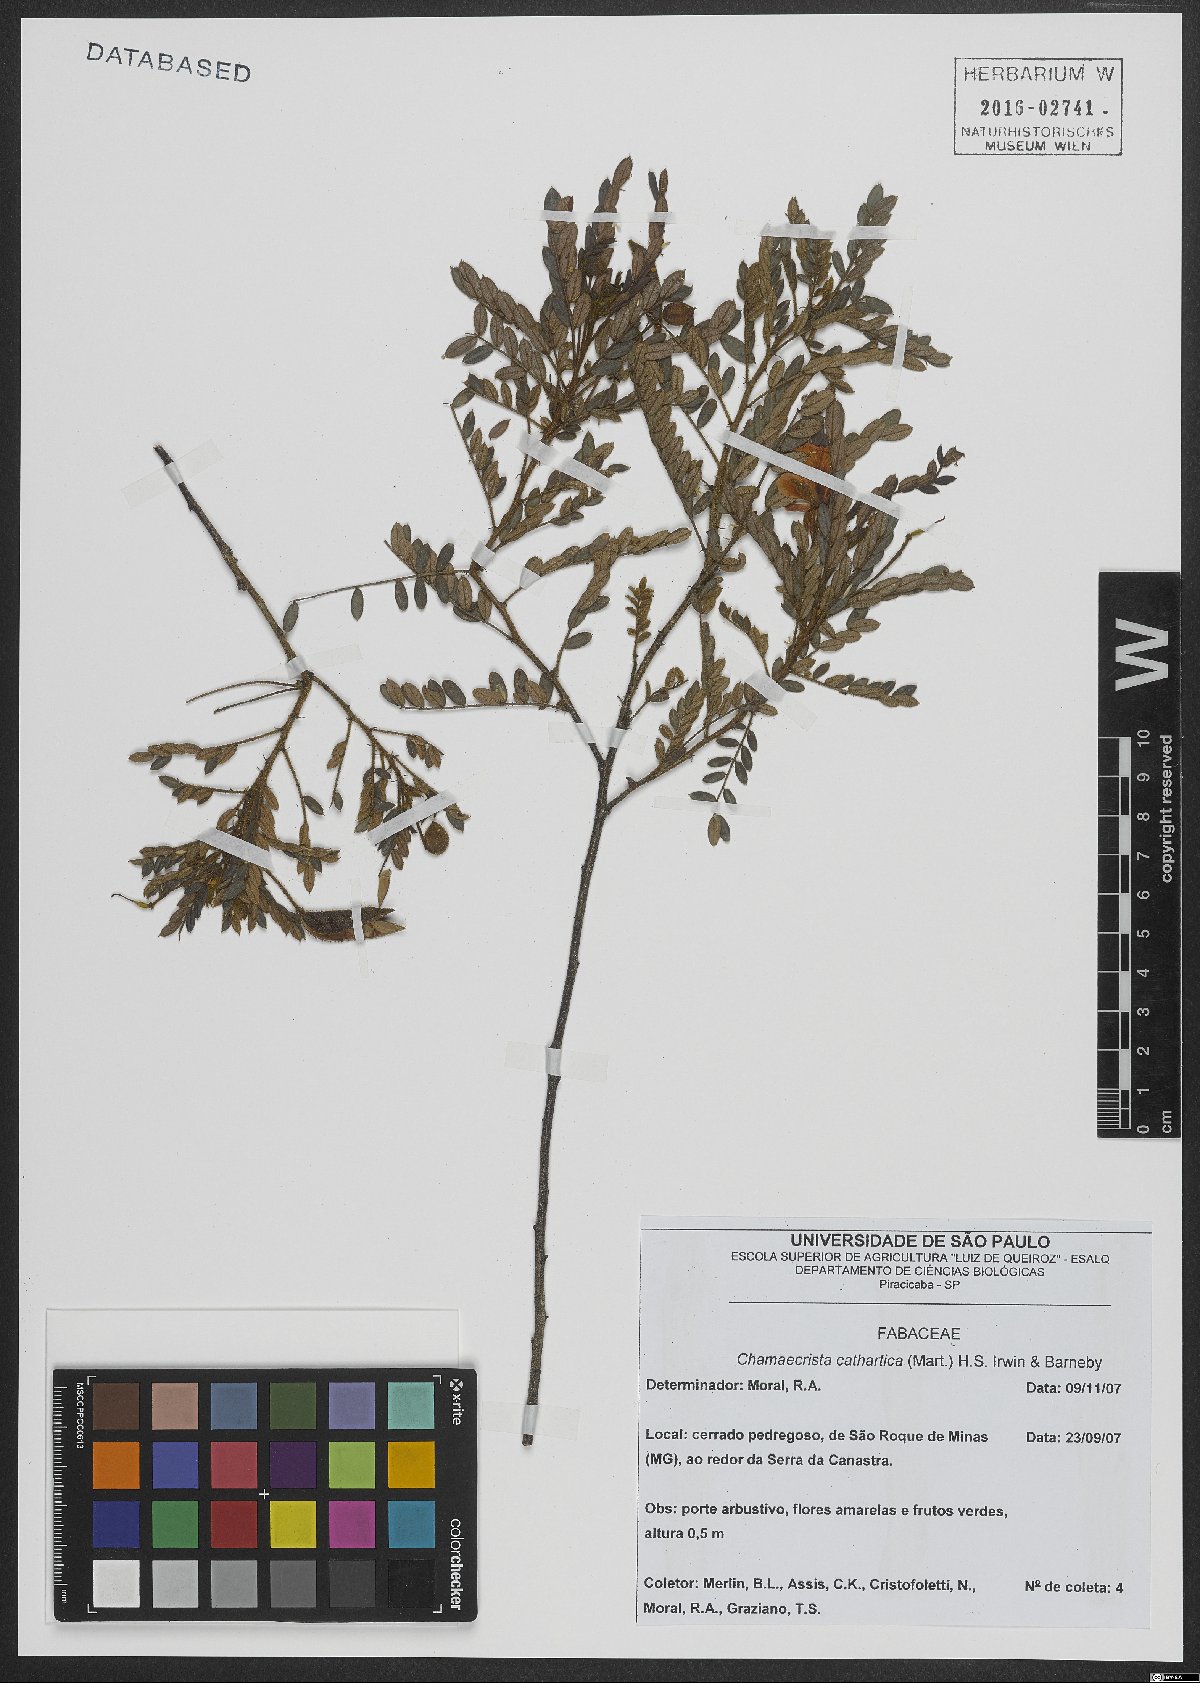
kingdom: Plantae
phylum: Tracheophyta
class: Magnoliopsida
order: Fabales
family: Fabaceae
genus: Chamaecrista
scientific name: Chamaecrista cathartica
